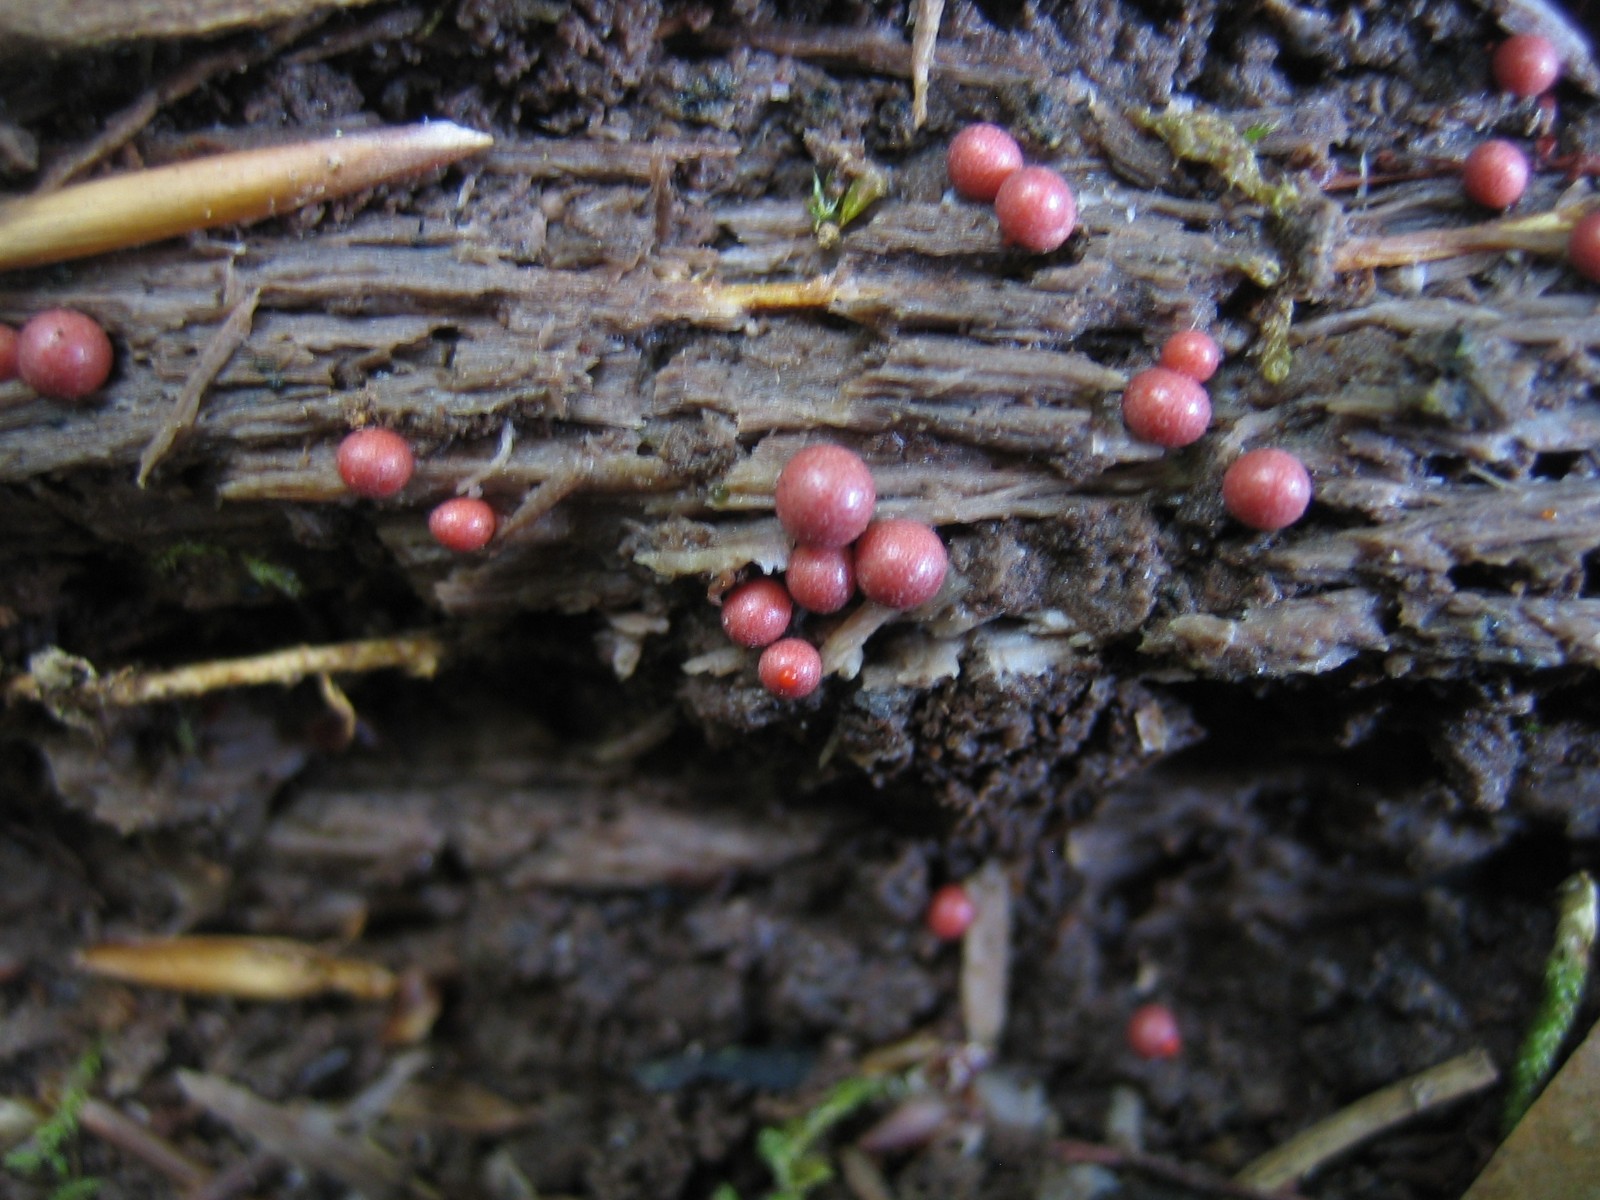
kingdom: Protozoa
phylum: Mycetozoa
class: Myxomycetes
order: Cribrariales
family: Tubiferaceae
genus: Lycogala
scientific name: Lycogala epidendrum
